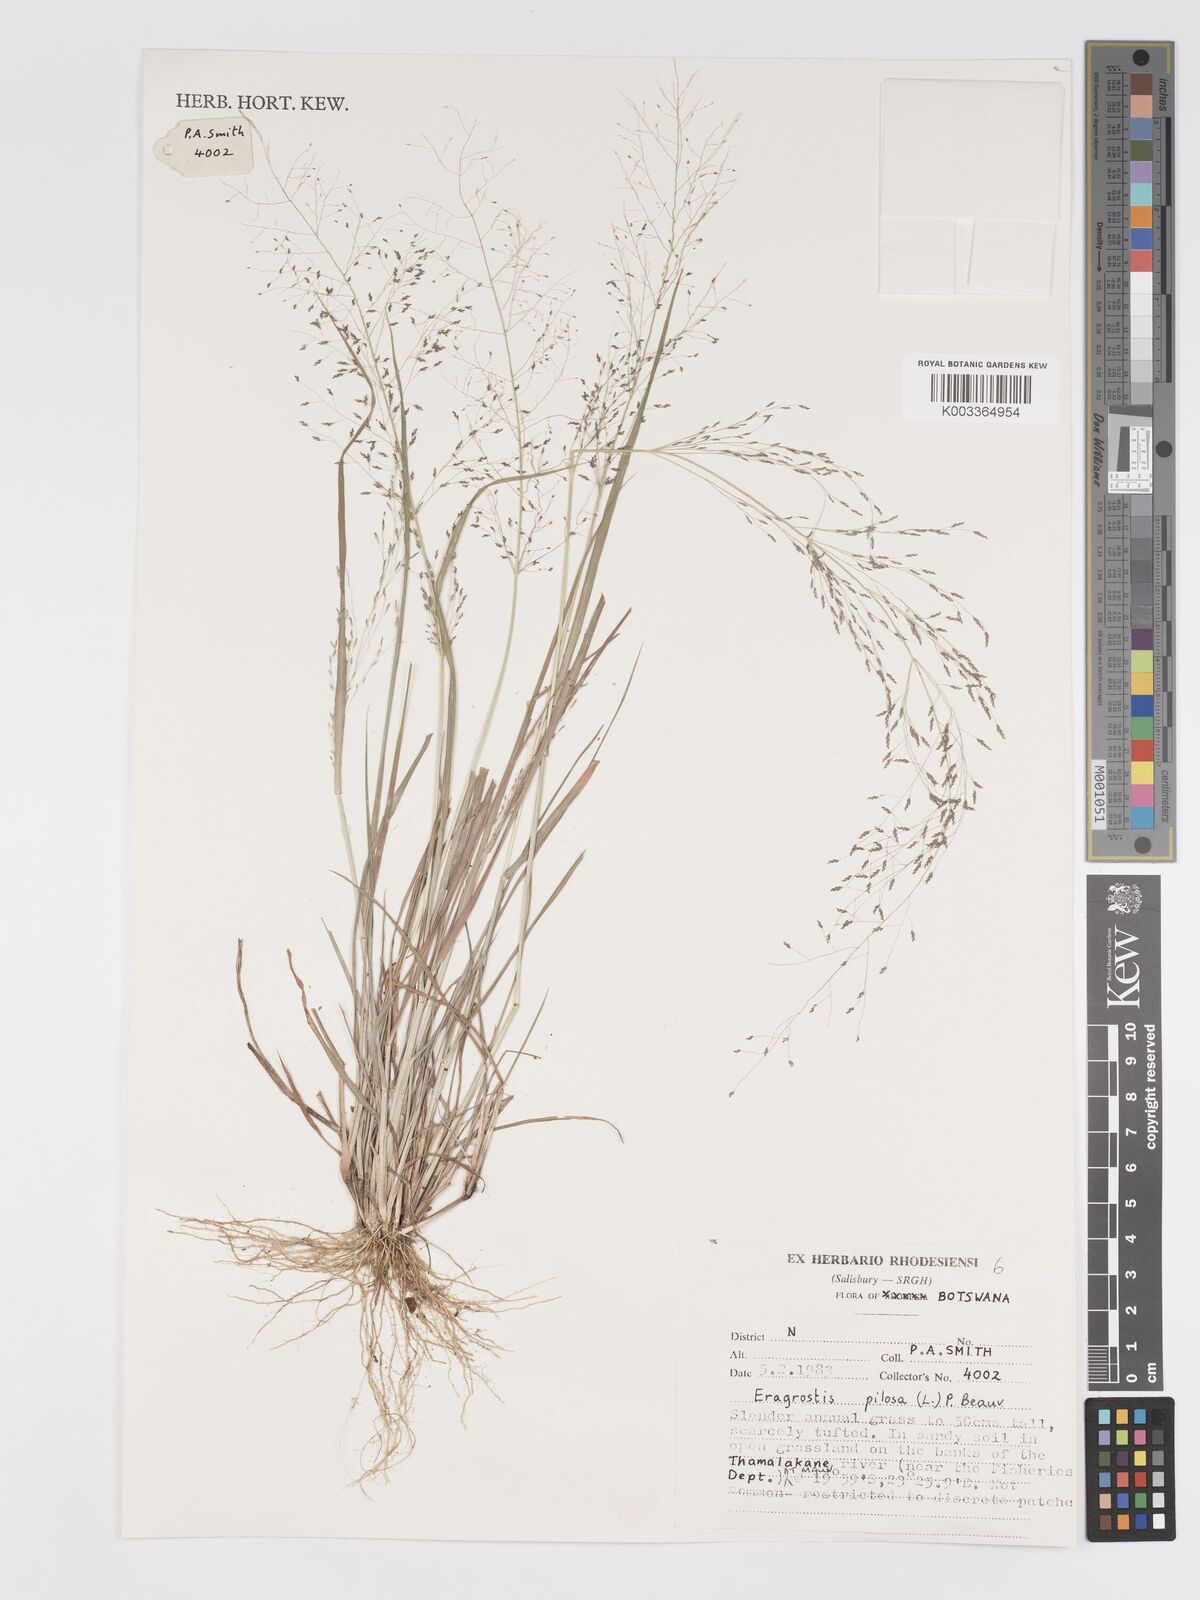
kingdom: Plantae
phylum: Tracheophyta
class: Liliopsida
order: Poales
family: Poaceae
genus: Eragrostis
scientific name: Eragrostis pilosa
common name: Indian lovegrass
